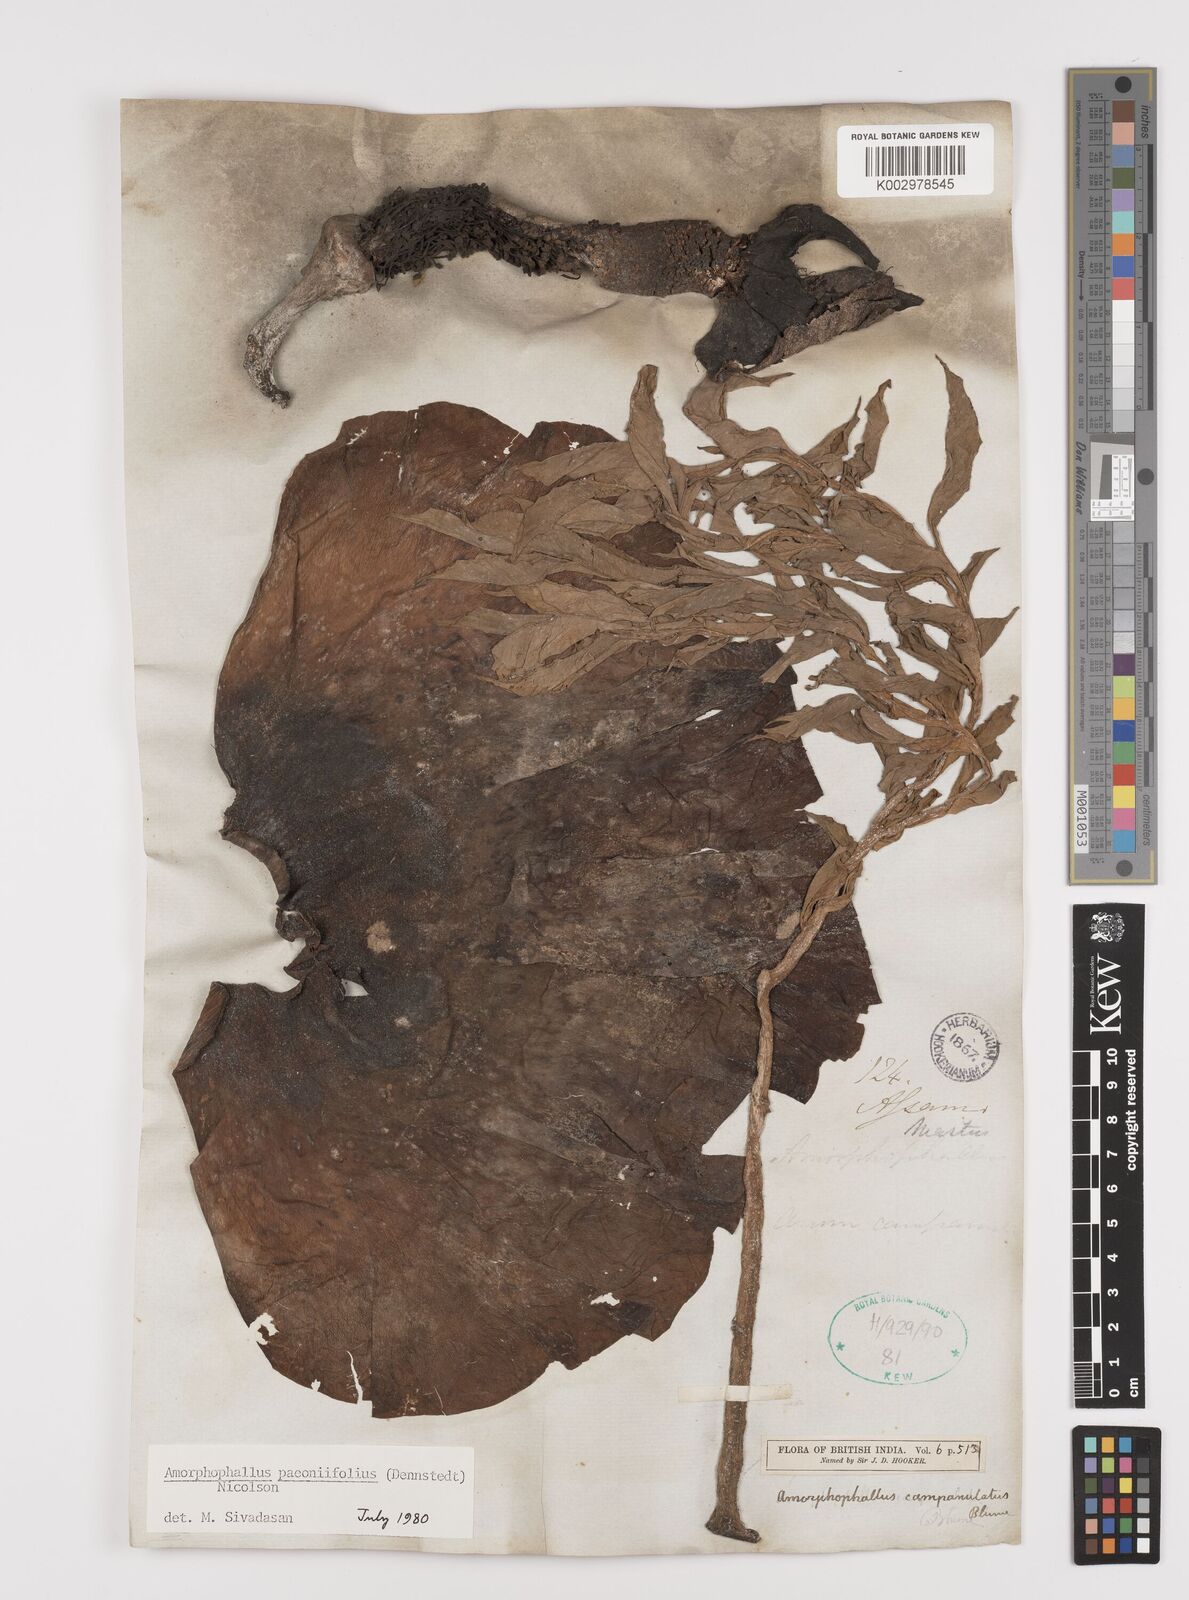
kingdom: Plantae
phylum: Tracheophyta
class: Liliopsida
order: Alismatales
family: Araceae
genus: Amorphophallus
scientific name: Amorphophallus paeoniifolius
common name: Telinga-potato
